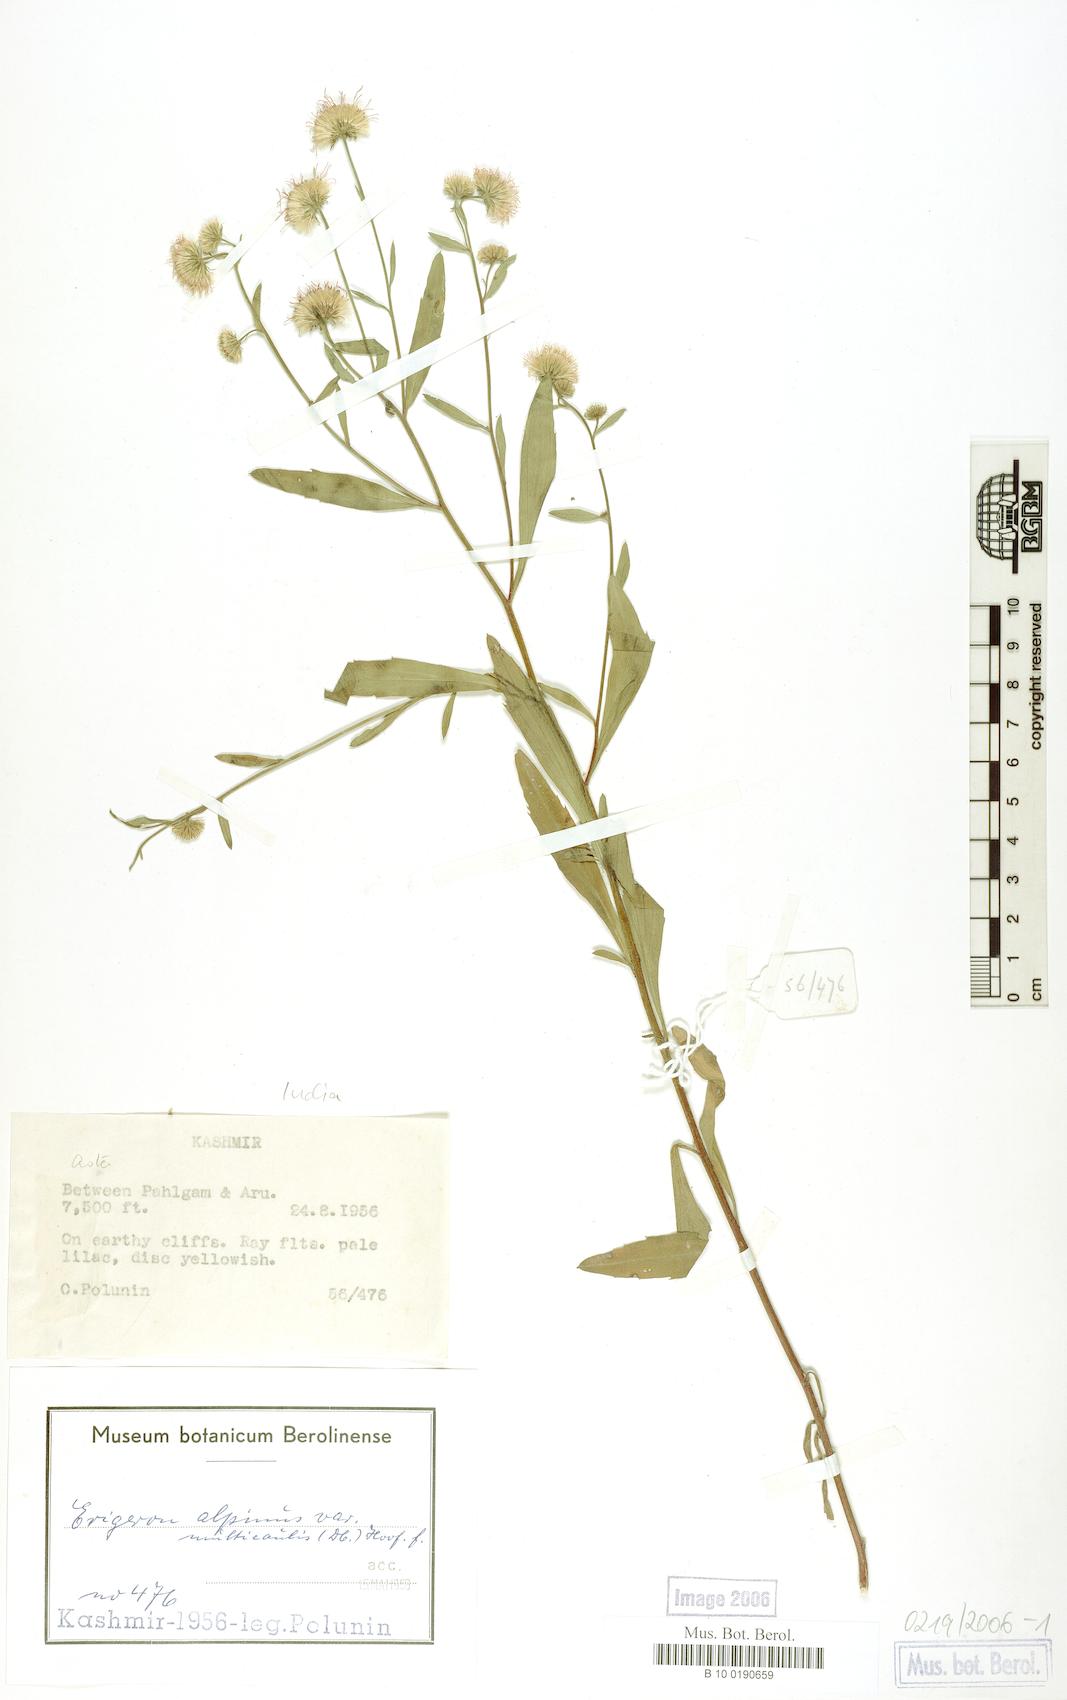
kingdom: Plantae
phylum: Tracheophyta
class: Magnoliopsida
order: Asterales
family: Asteraceae
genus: Erigeron
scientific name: Erigeron acris
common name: Blue fleabane
